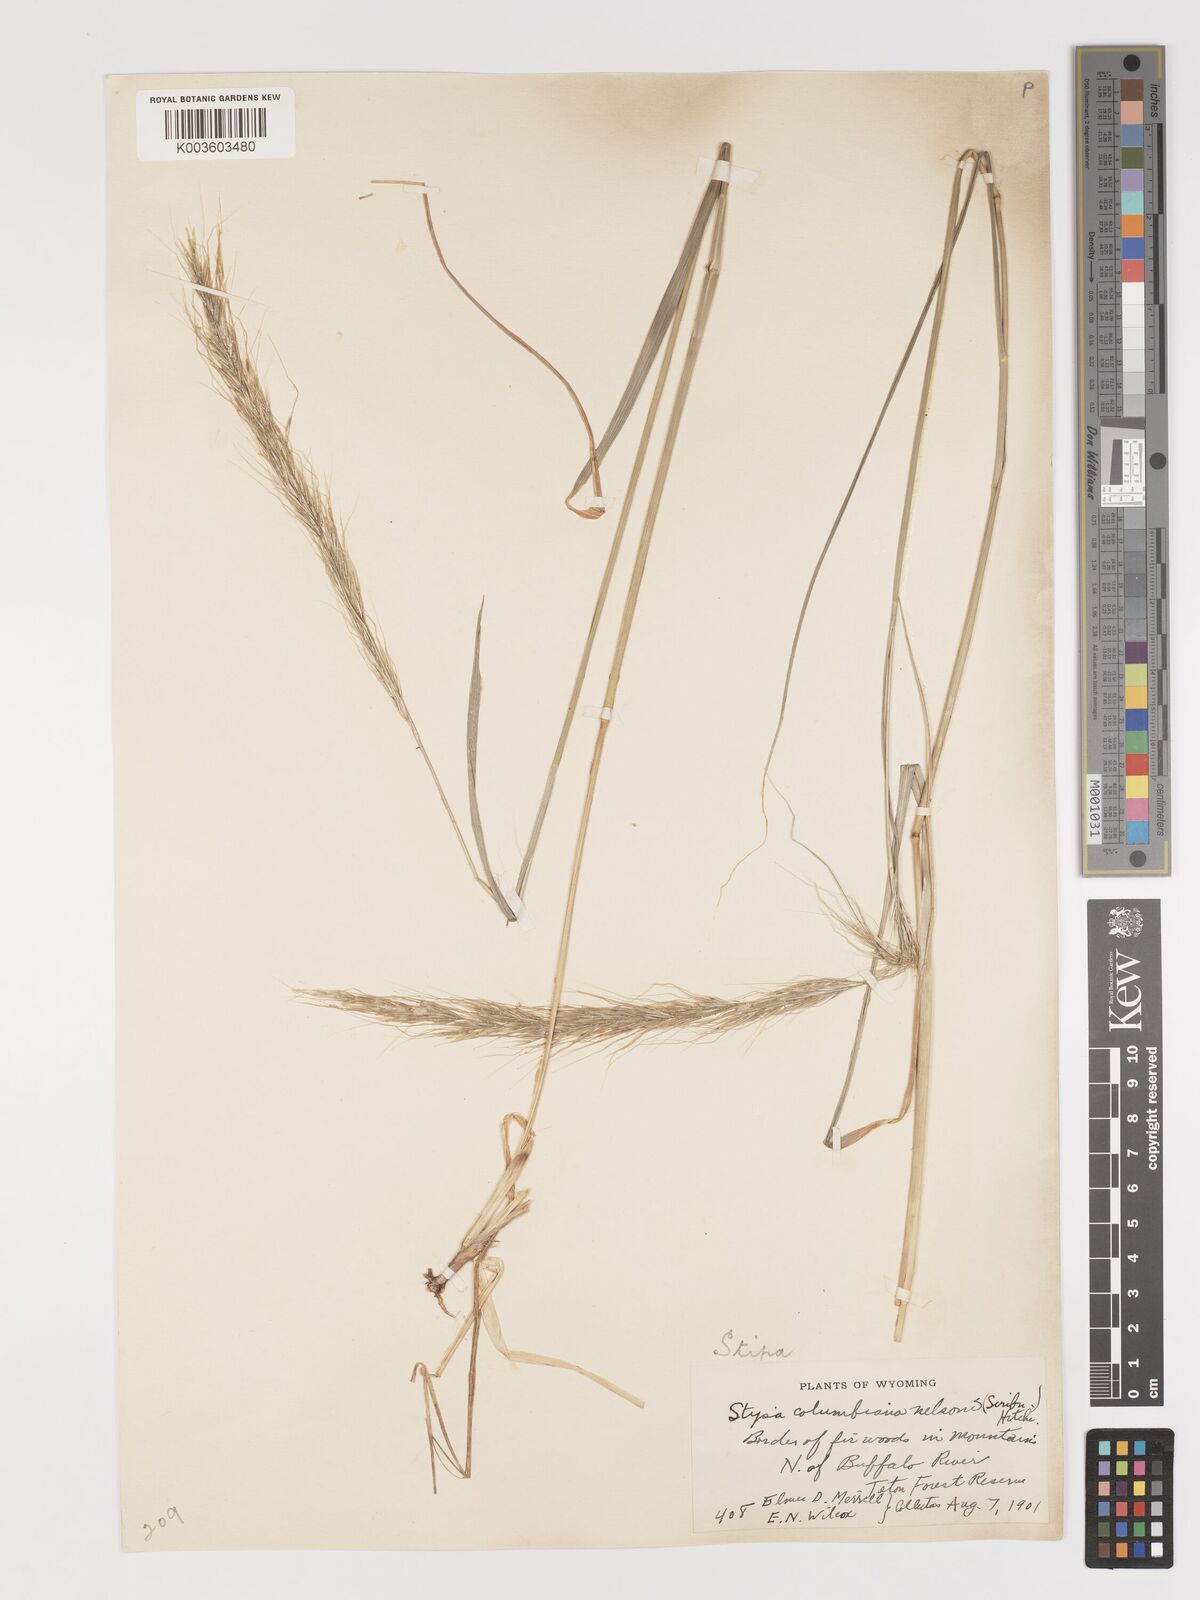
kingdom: Plantae
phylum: Tracheophyta
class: Liliopsida
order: Poales
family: Poaceae
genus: Eriocoma
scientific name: Eriocoma nelsonii
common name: Nelson's needlegrass
